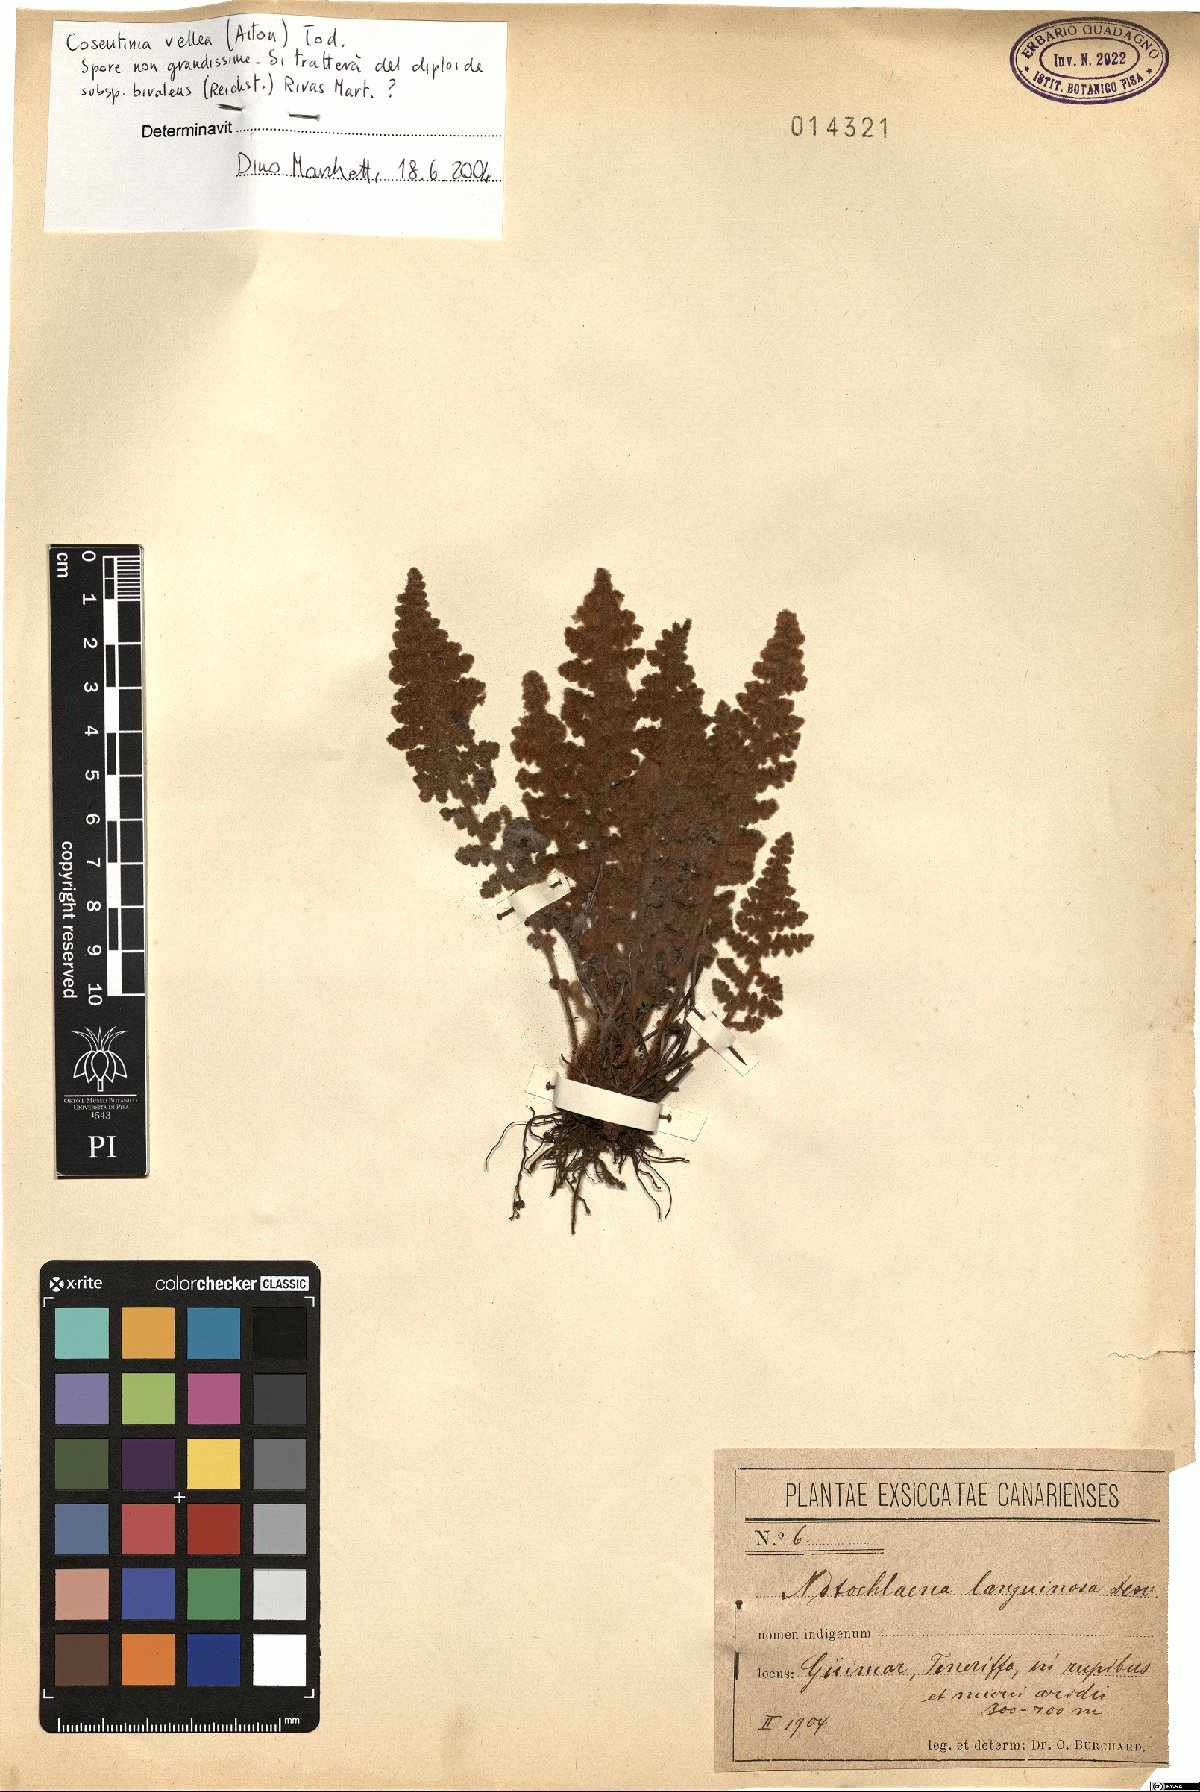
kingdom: Plantae
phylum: Tracheophyta
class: Polypodiopsida
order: Polypodiales
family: Pteridaceae
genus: Cosentinia
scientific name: Cosentinia vellea
